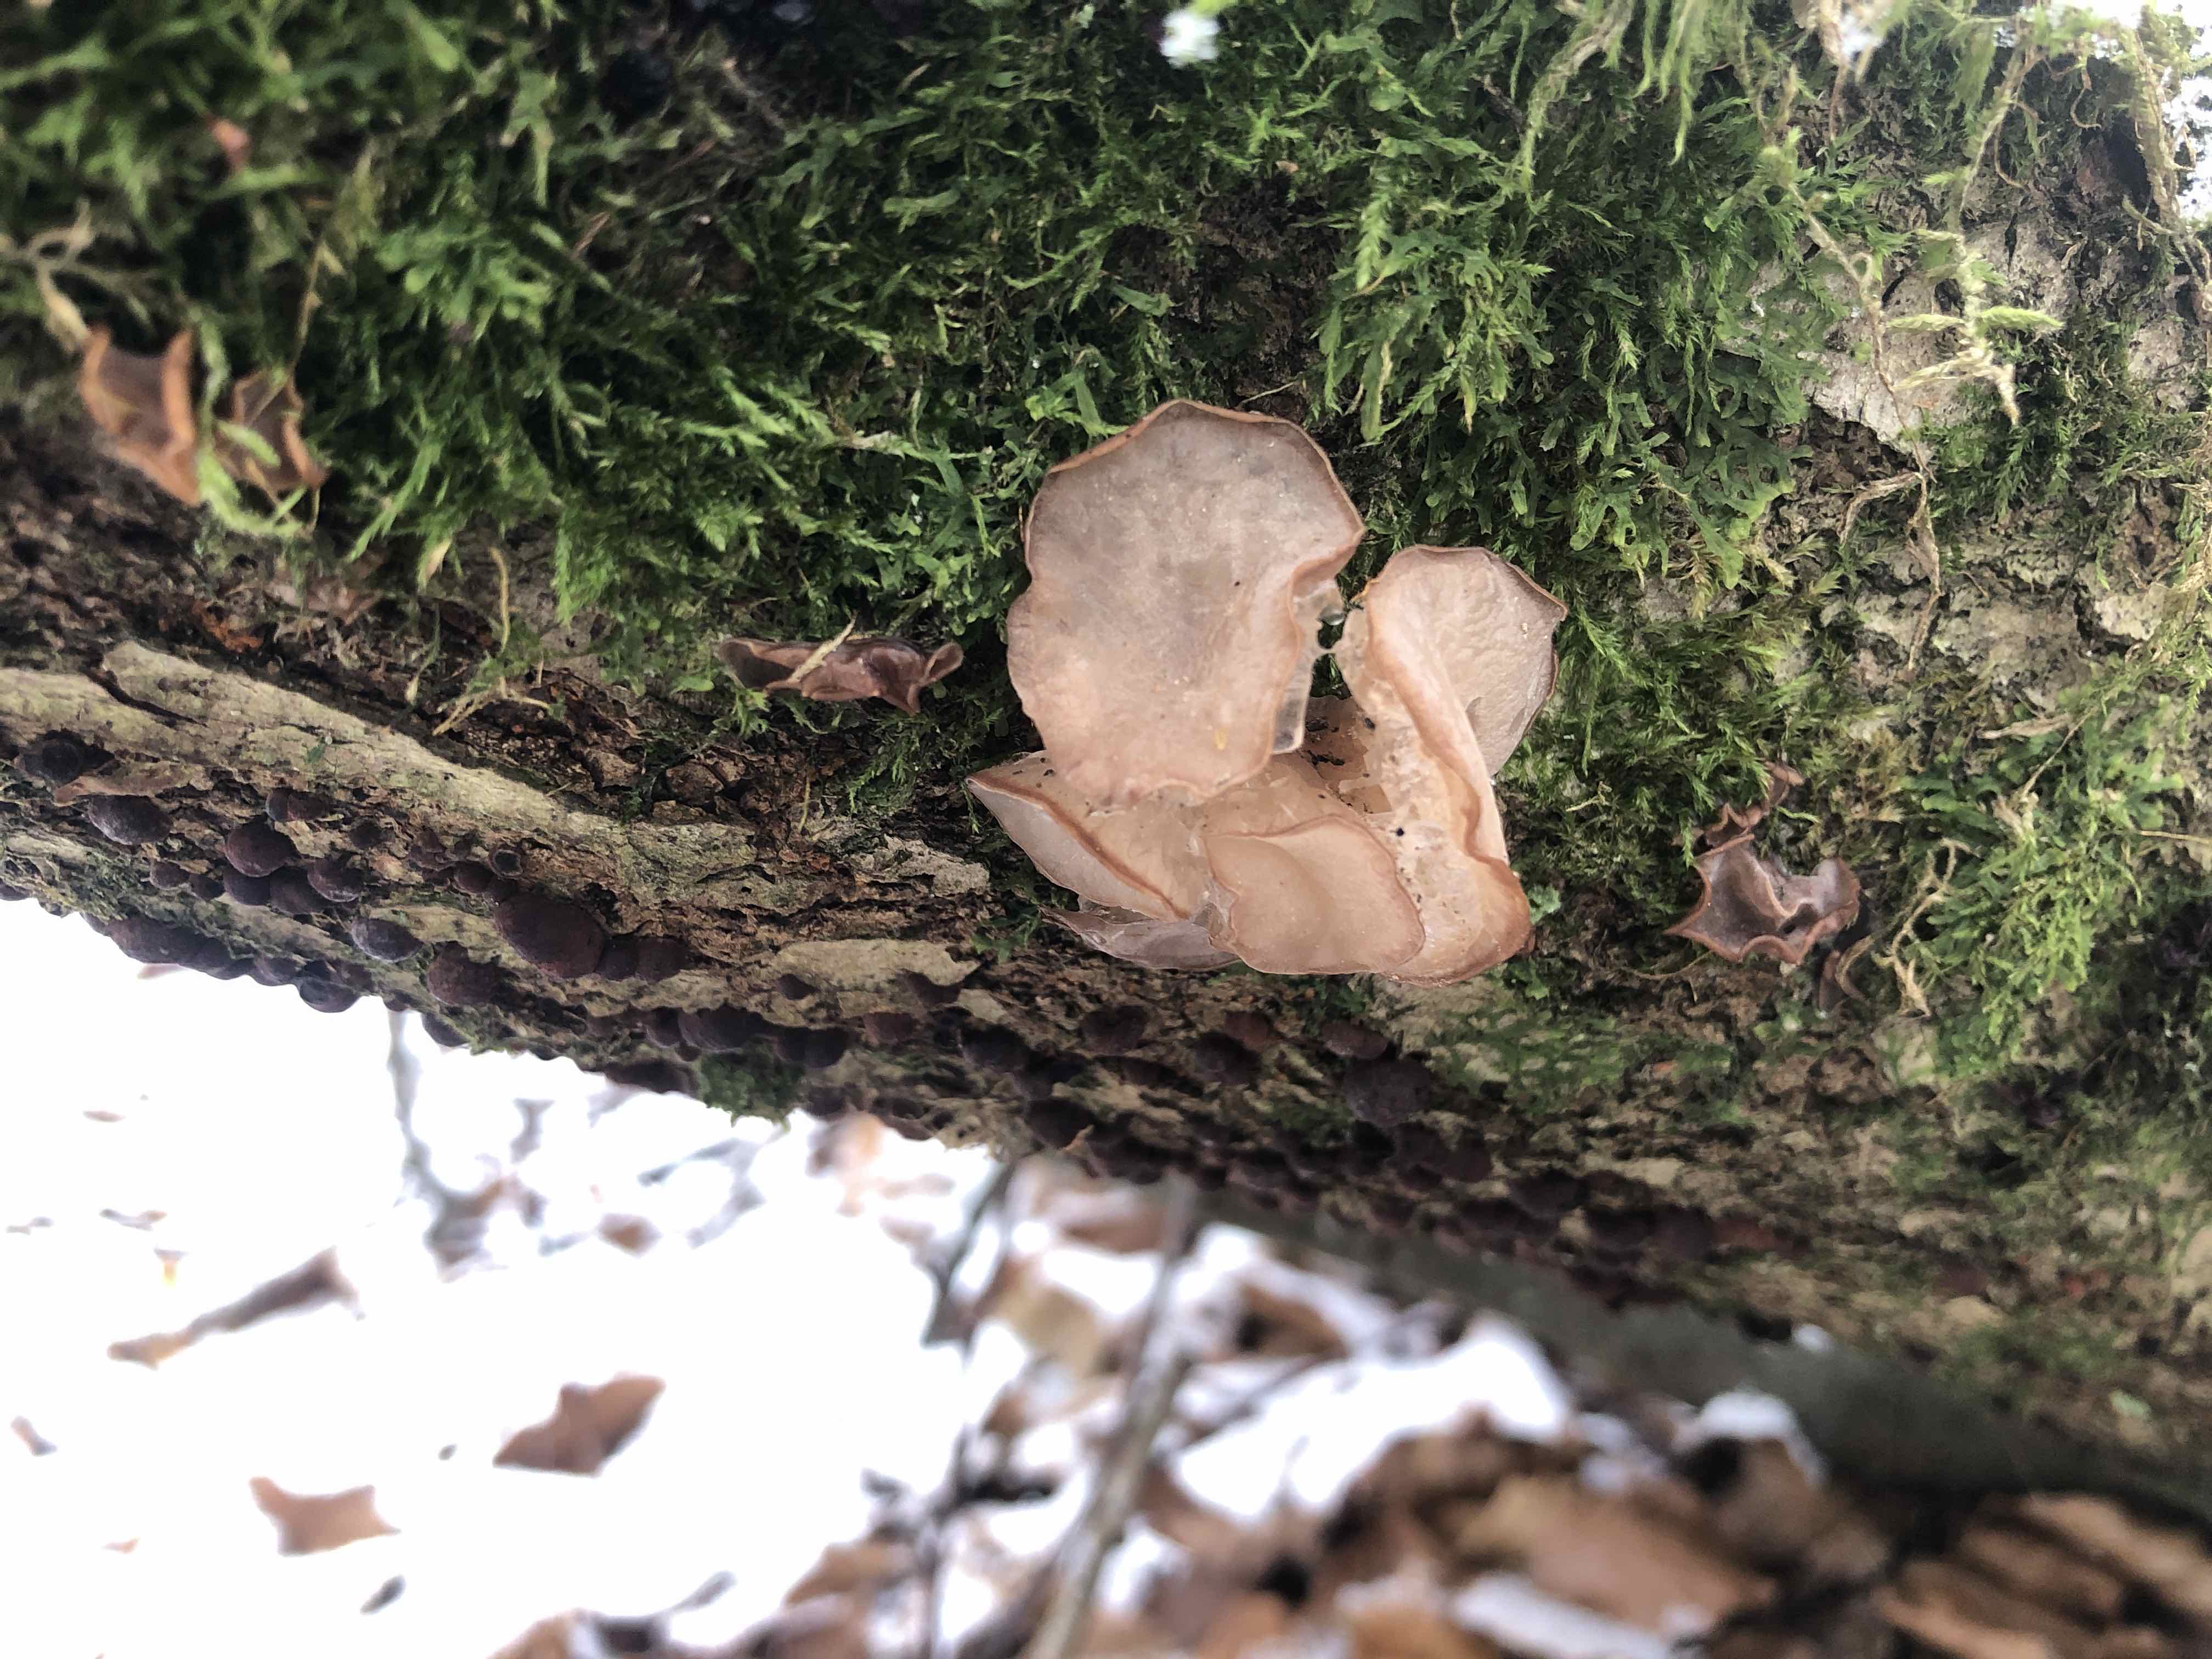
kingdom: Fungi
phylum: Ascomycota
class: Leotiomycetes
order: Helotiales
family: Gelatinodiscaceae
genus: Neobulgaria
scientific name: Neobulgaria pura
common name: bleg bævreskive
